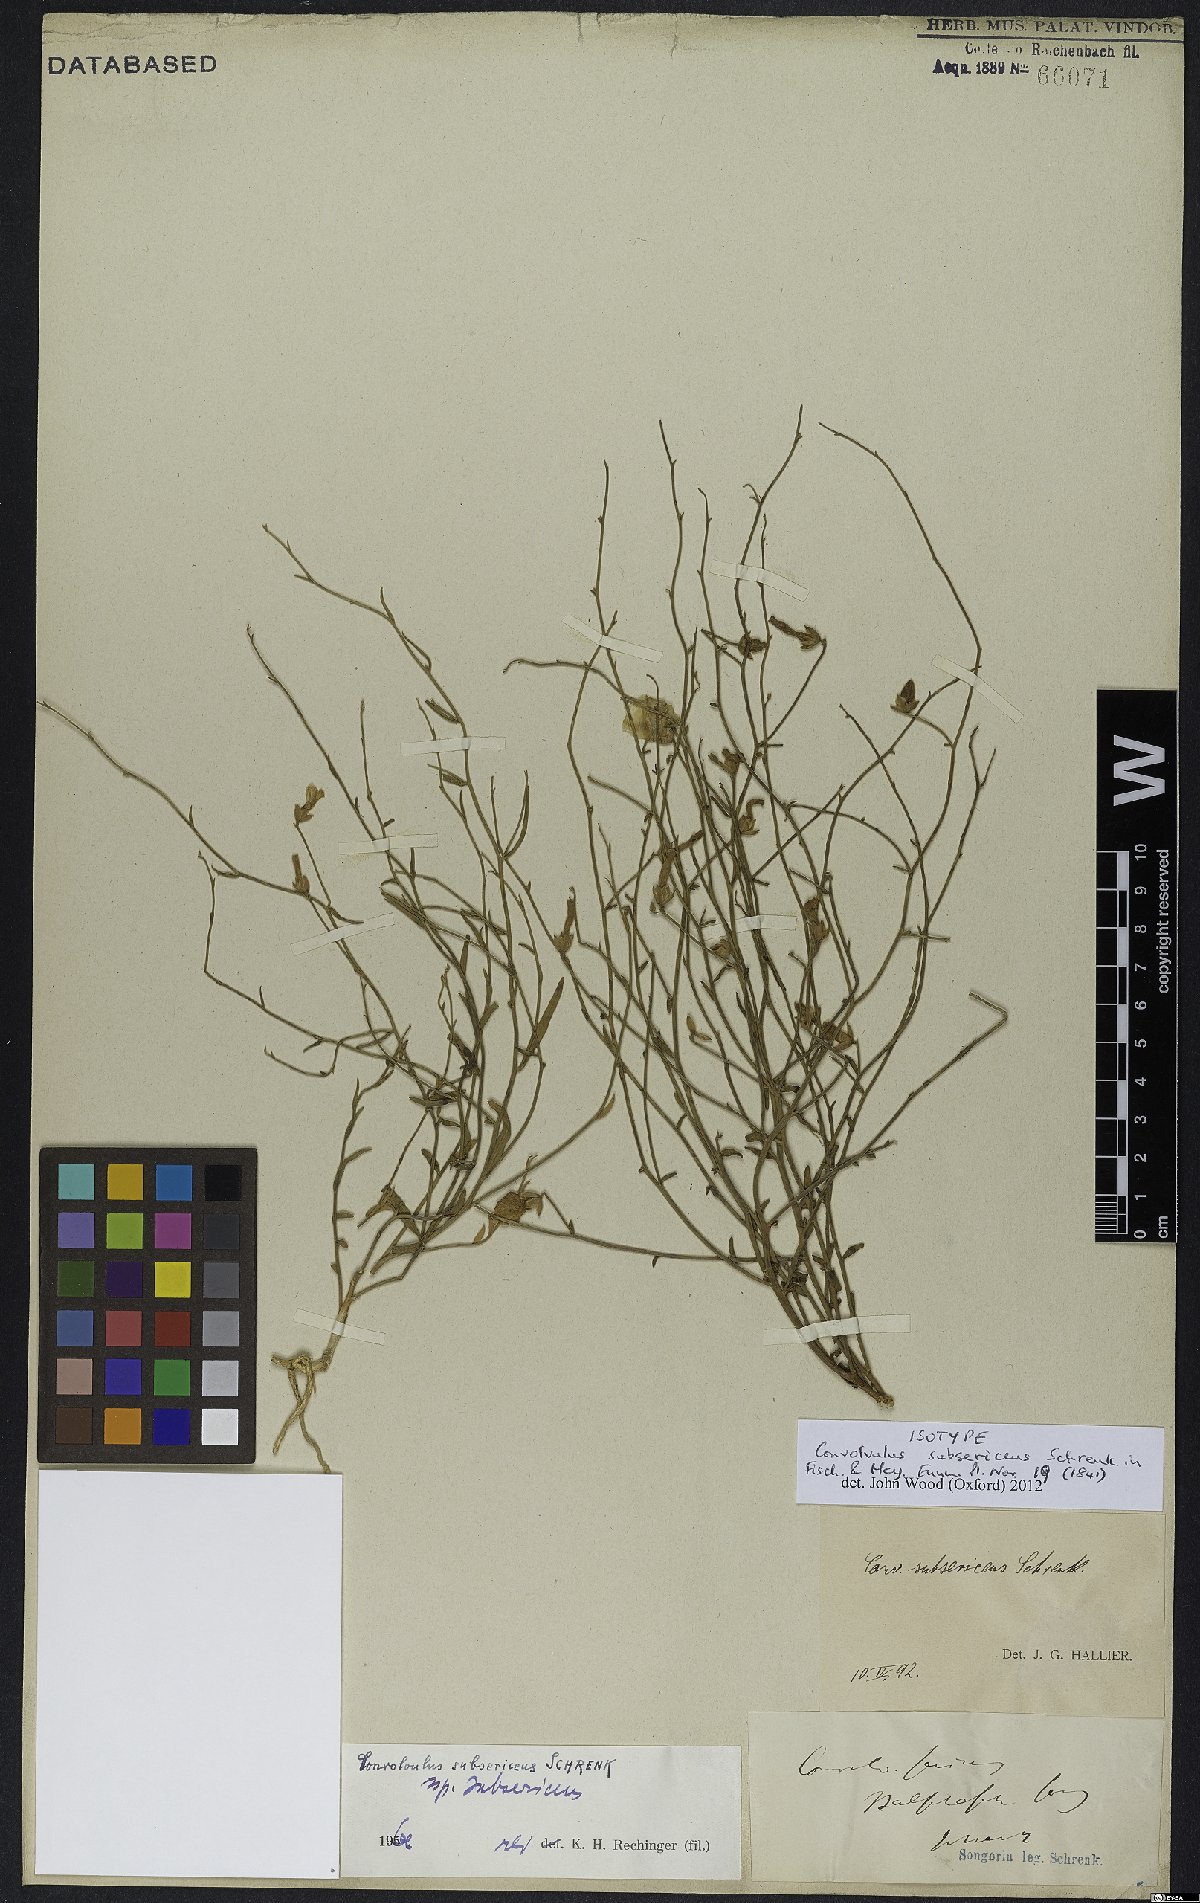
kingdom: Plantae
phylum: Tracheophyta
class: Magnoliopsida
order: Solanales
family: Convolvulaceae
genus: Convolvulus
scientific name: Convolvulus subsericeus
